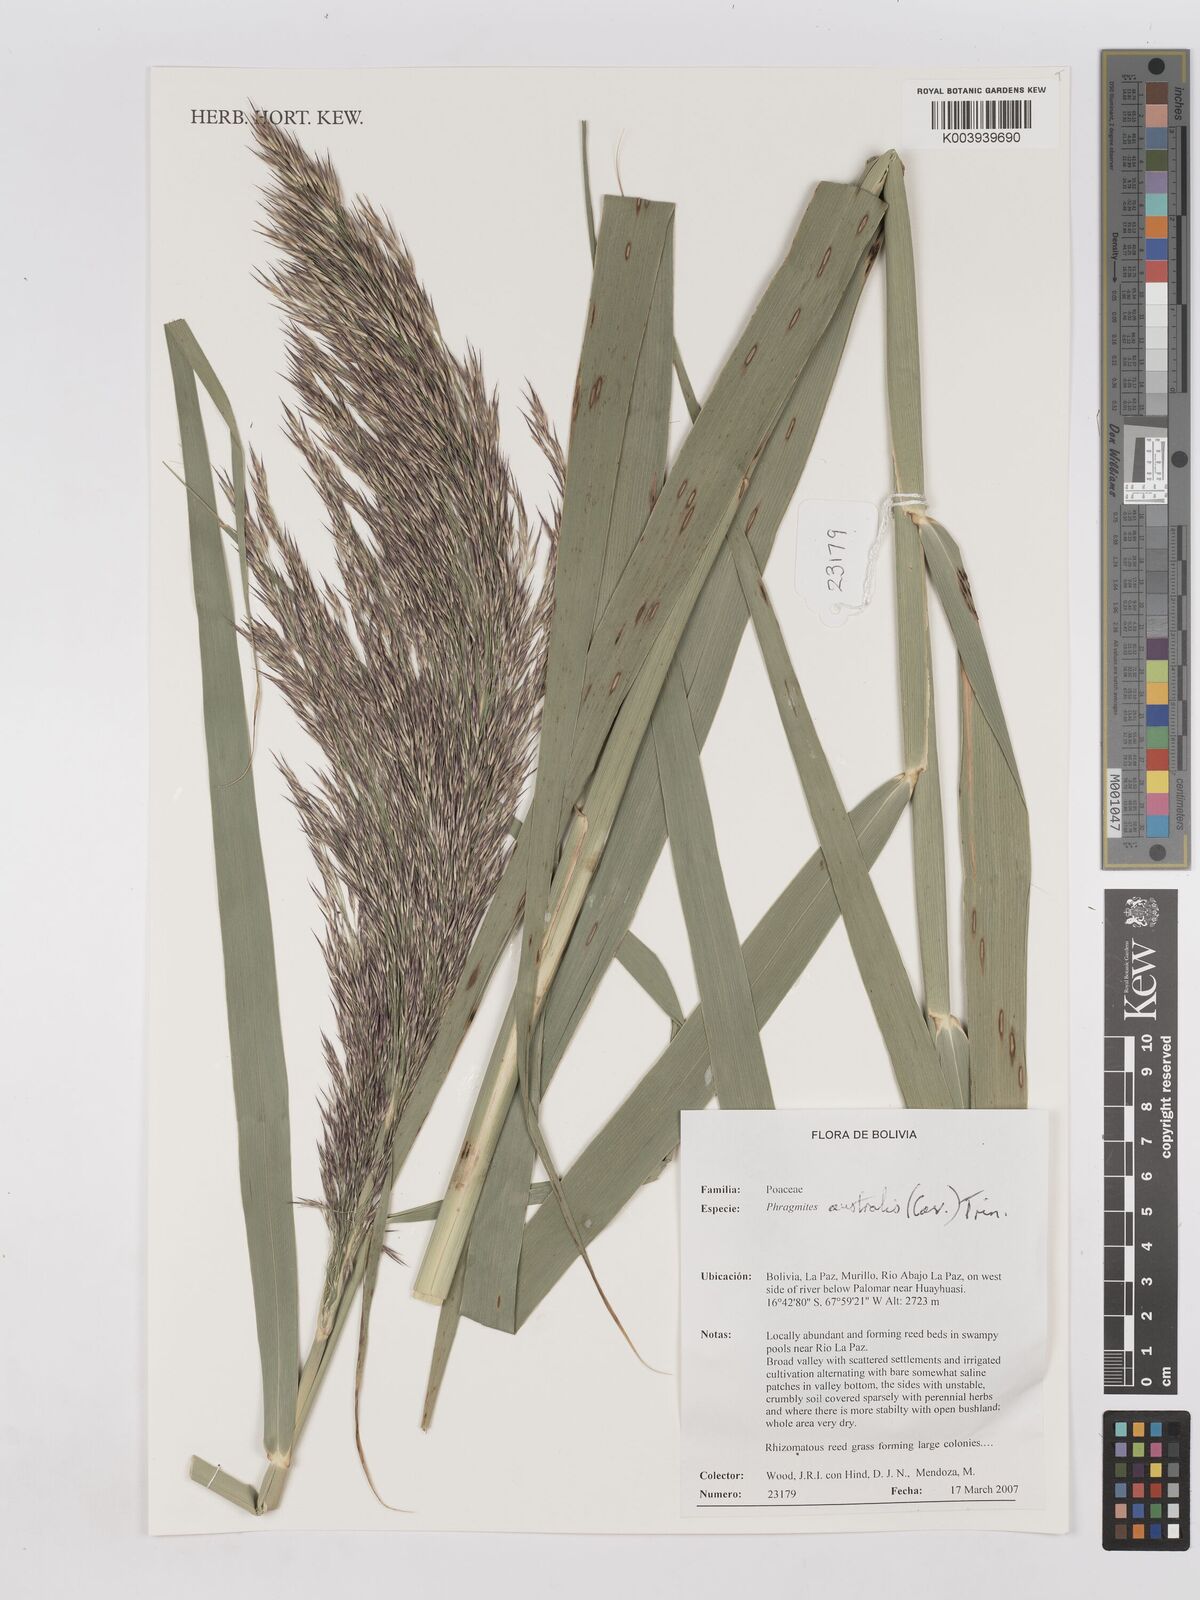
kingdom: Plantae
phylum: Tracheophyta
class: Liliopsida
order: Poales
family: Poaceae
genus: Phragmites
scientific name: Phragmites australis
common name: Common reed
